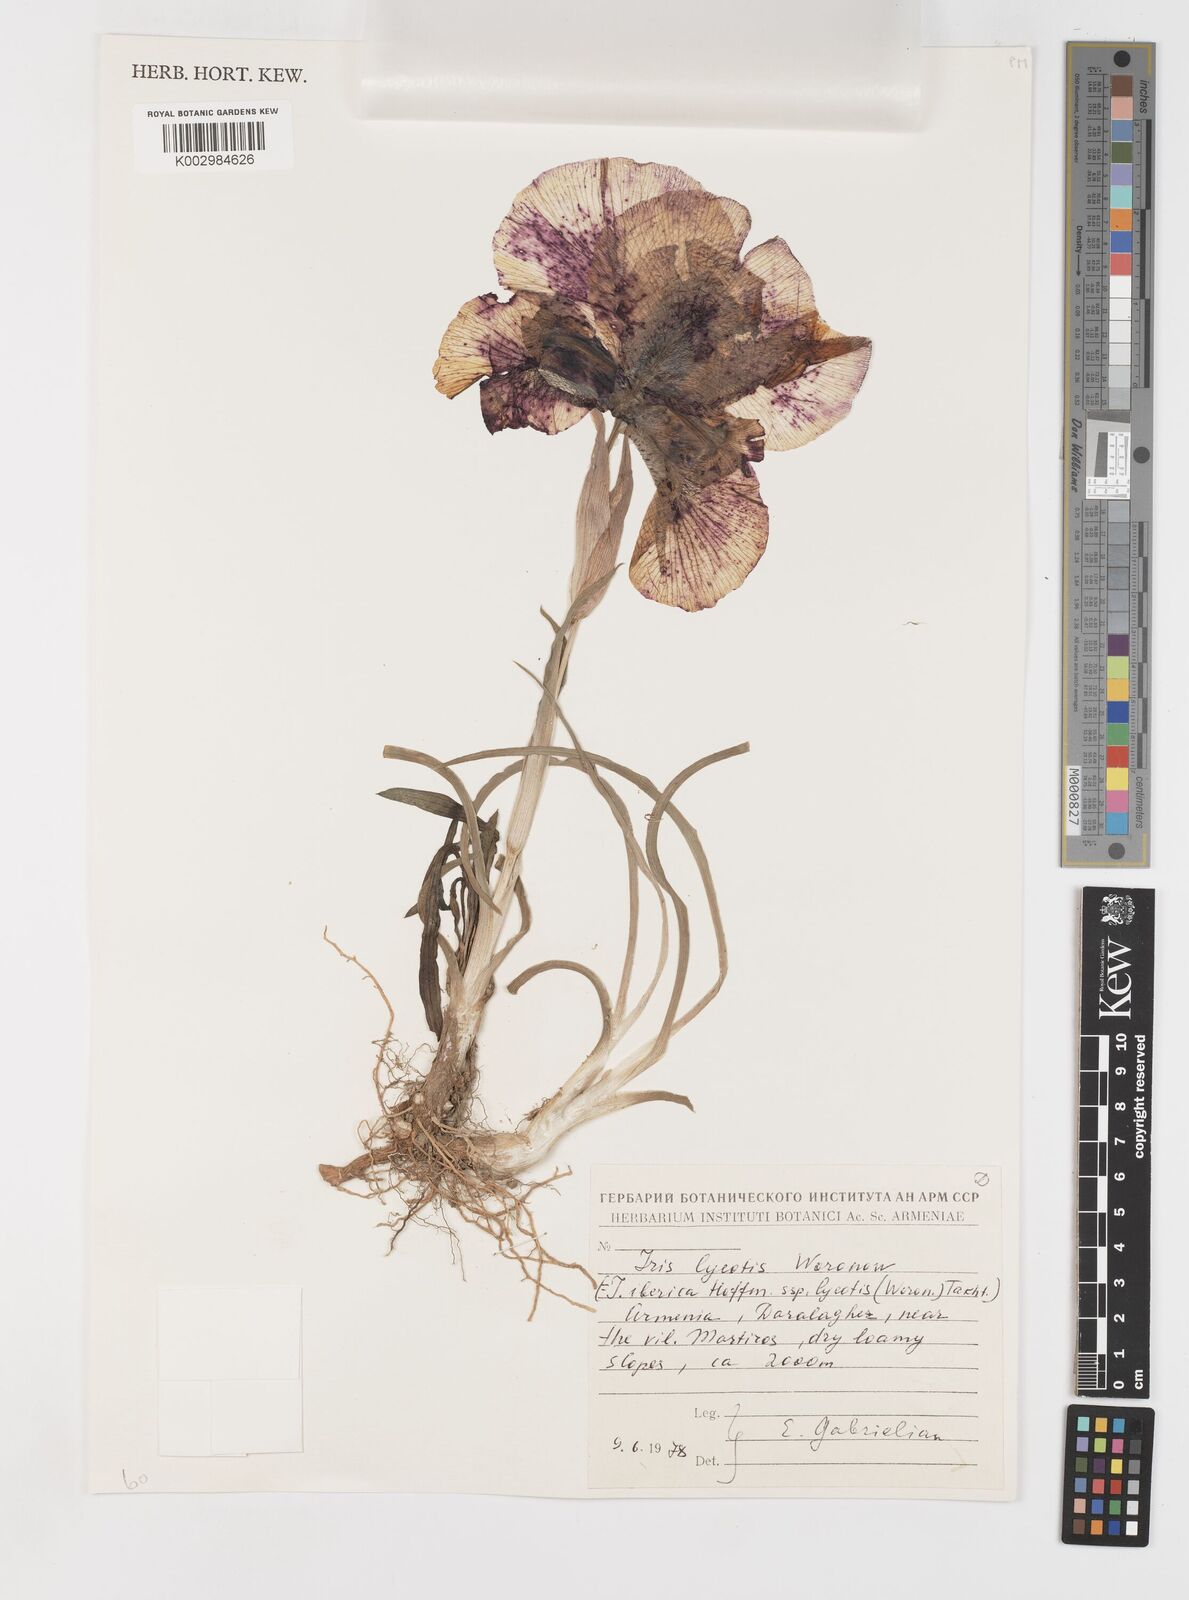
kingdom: Plantae
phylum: Tracheophyta
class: Liliopsida
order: Asparagales
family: Iridaceae
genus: Iris
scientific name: Iris lycotis
